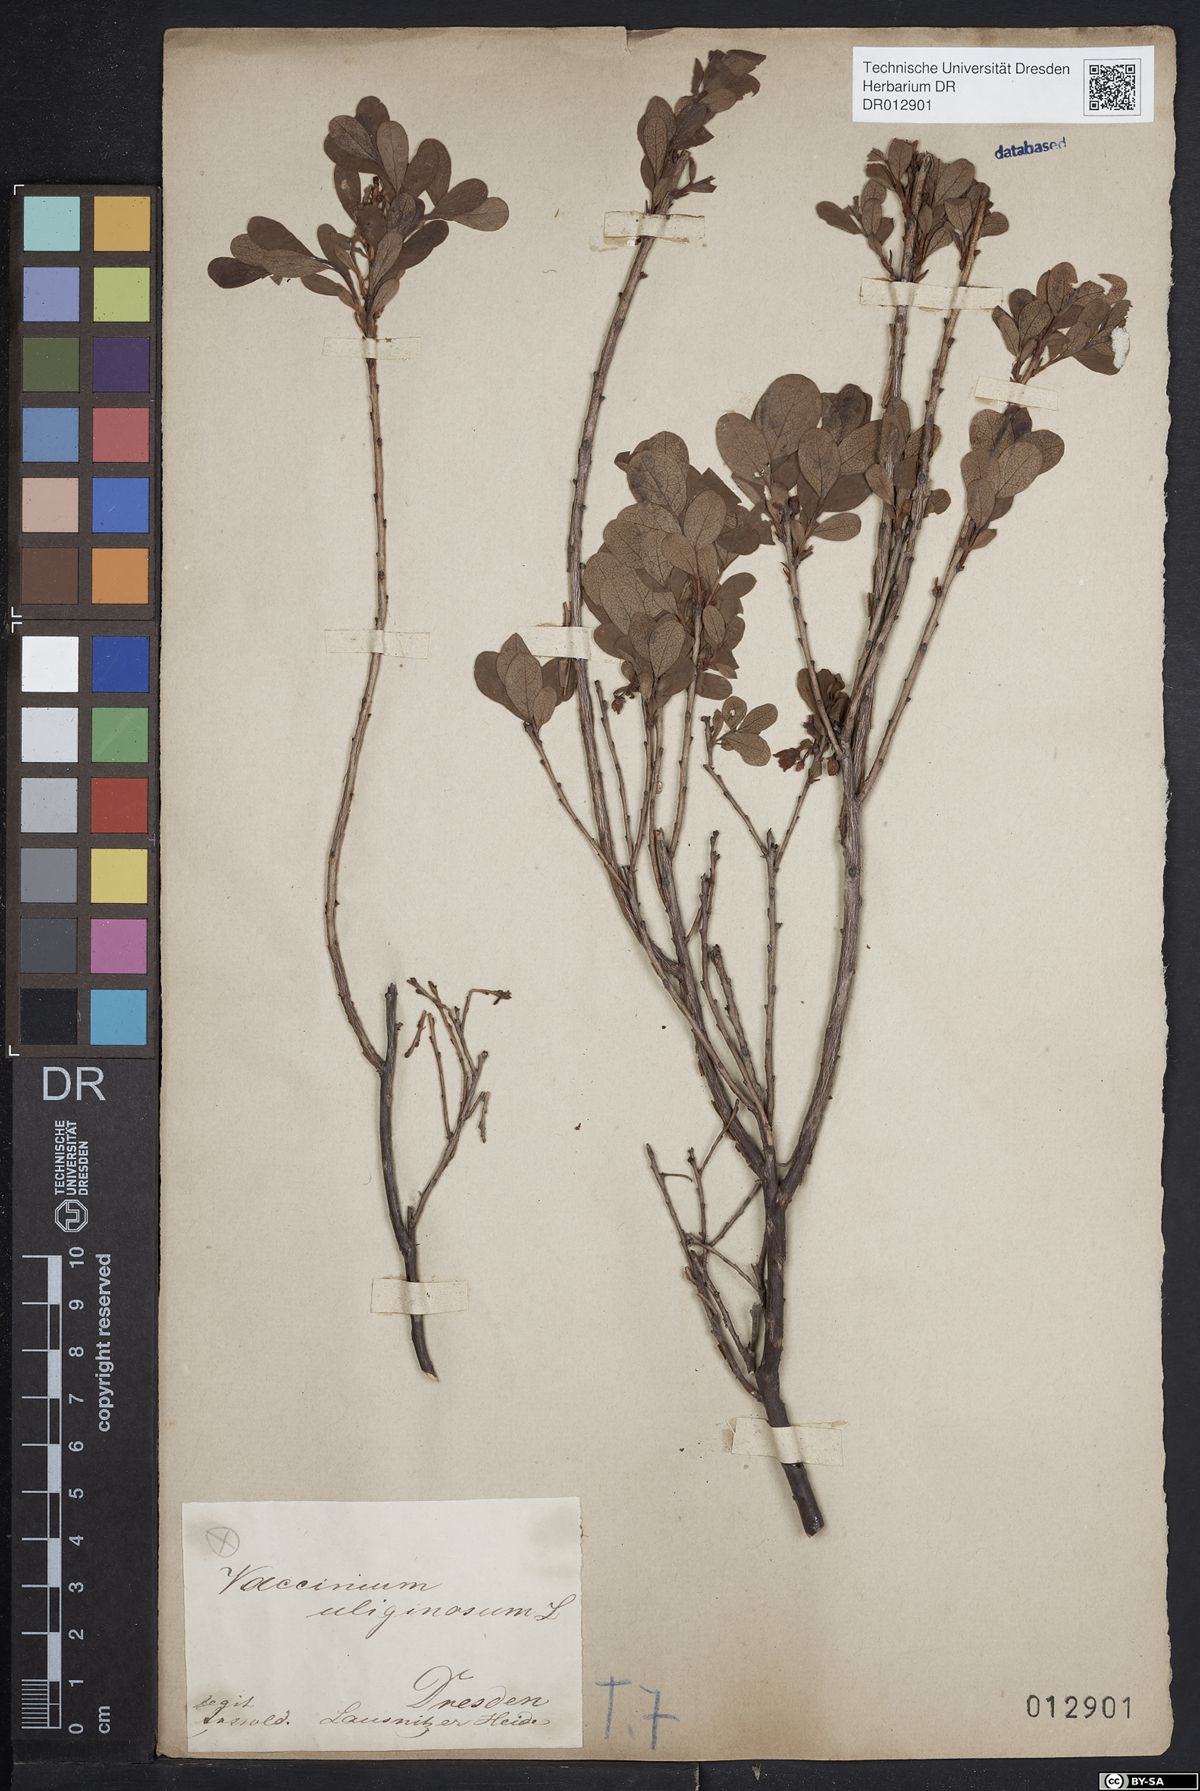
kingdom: Plantae
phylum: Tracheophyta
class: Magnoliopsida
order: Ericales
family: Ericaceae
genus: Vaccinium
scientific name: Vaccinium uliginosum
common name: Bog bilberry
